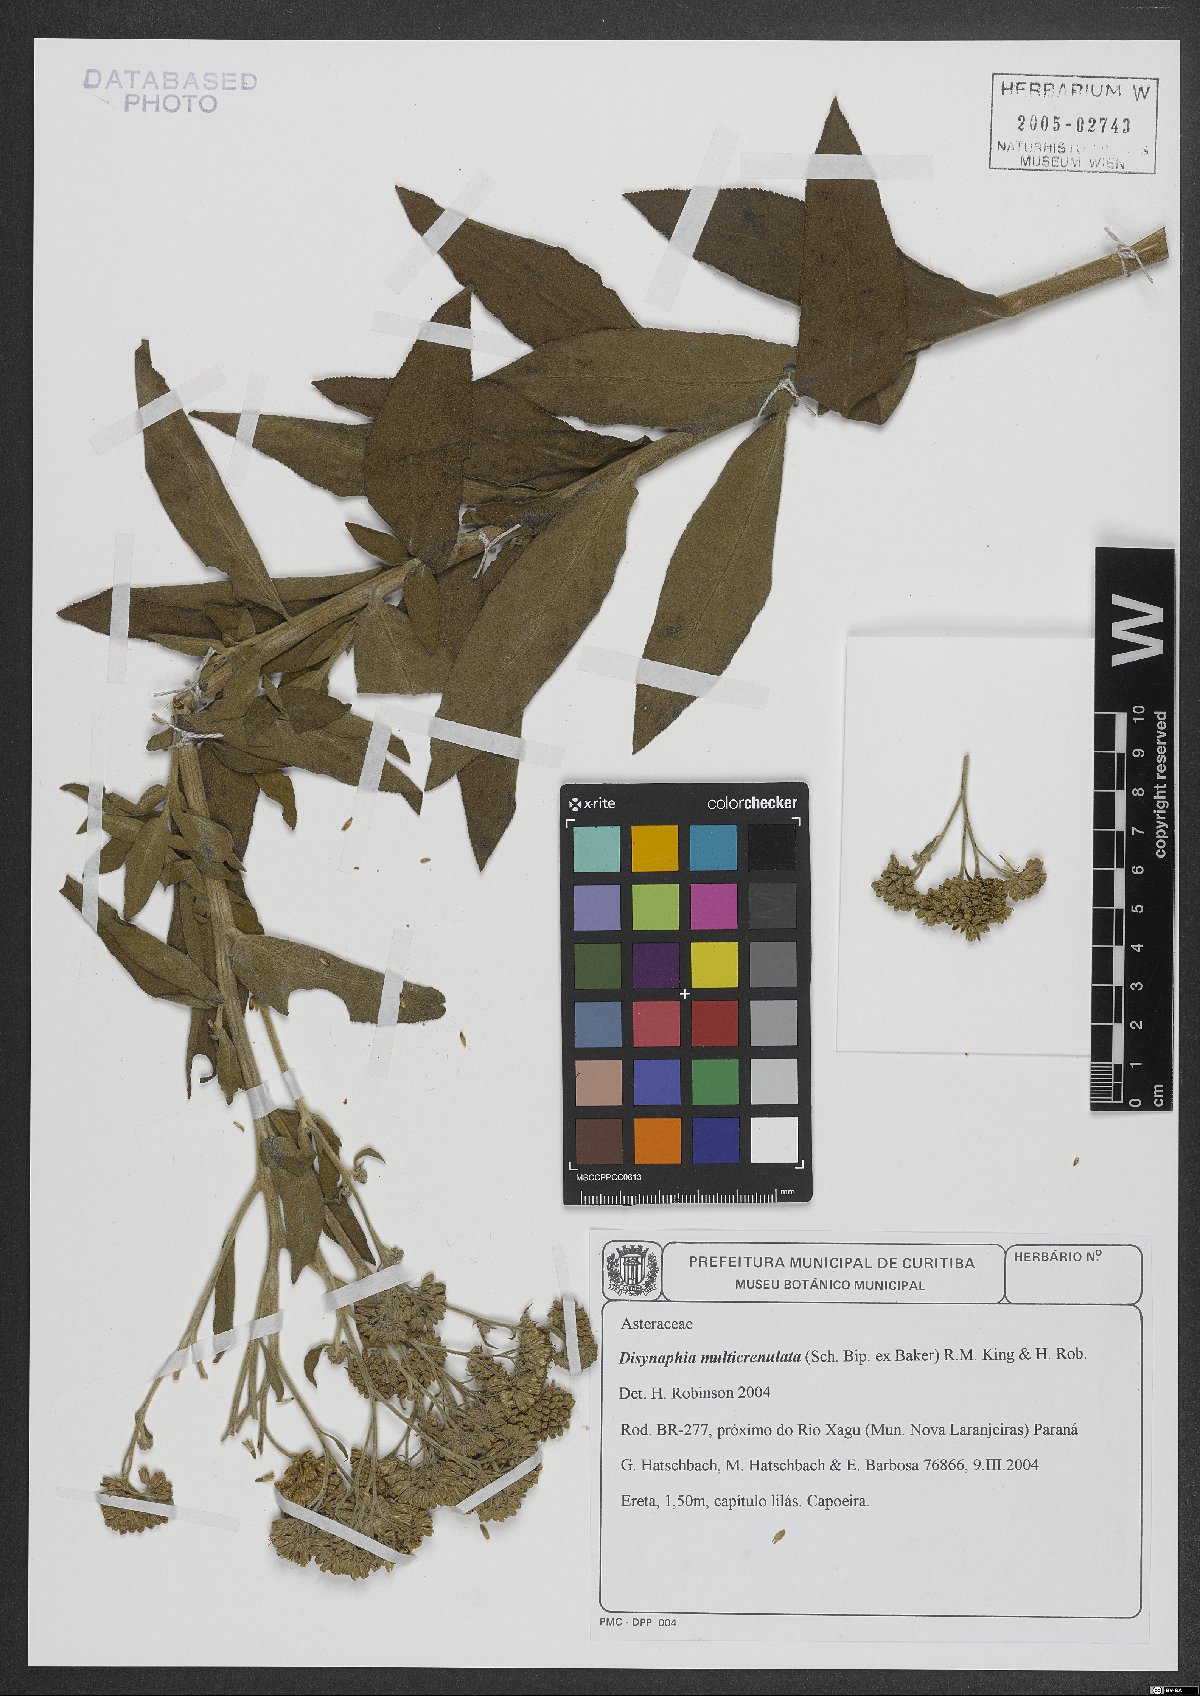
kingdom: Plantae
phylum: Tracheophyta
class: Magnoliopsida
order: Asterales
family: Asteraceae
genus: Disynaphia
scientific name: Disynaphia multicrenulata
